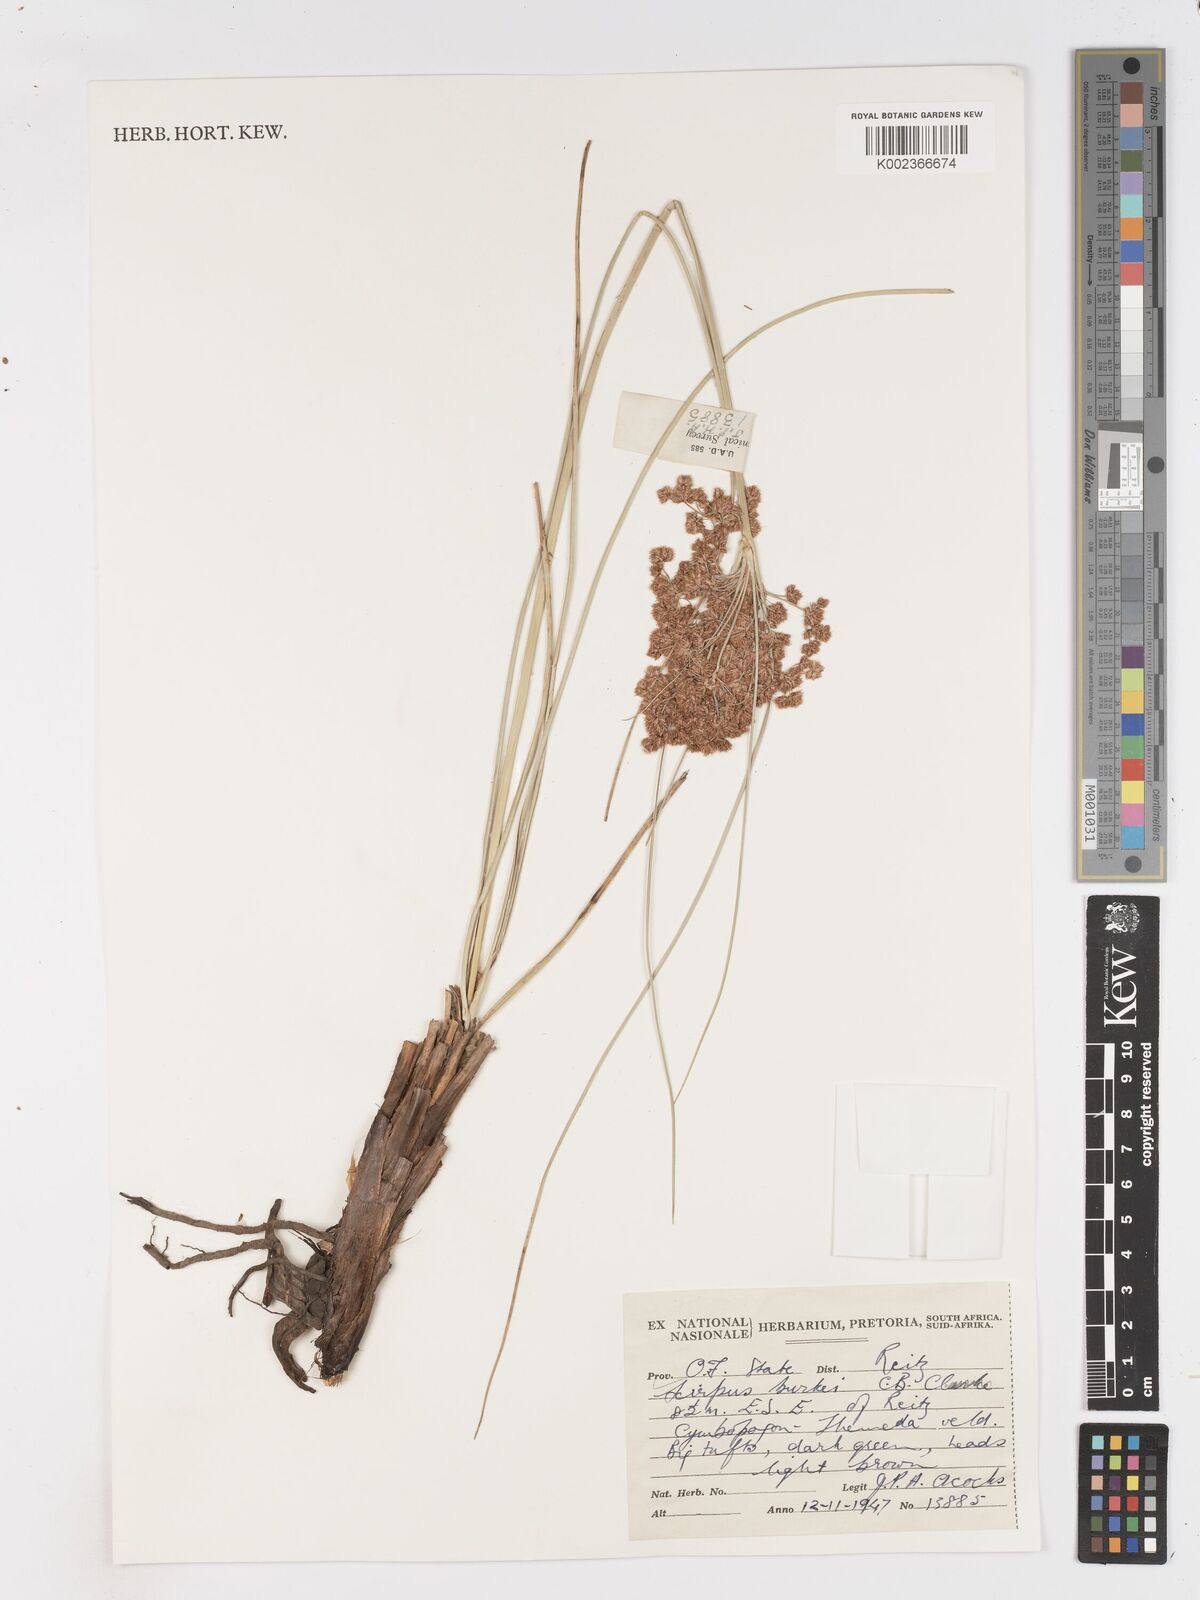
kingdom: Plantae
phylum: Tracheophyta
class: Liliopsida
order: Poales
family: Cyperaceae
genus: Scirpoides
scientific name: Scirpoides burkei
